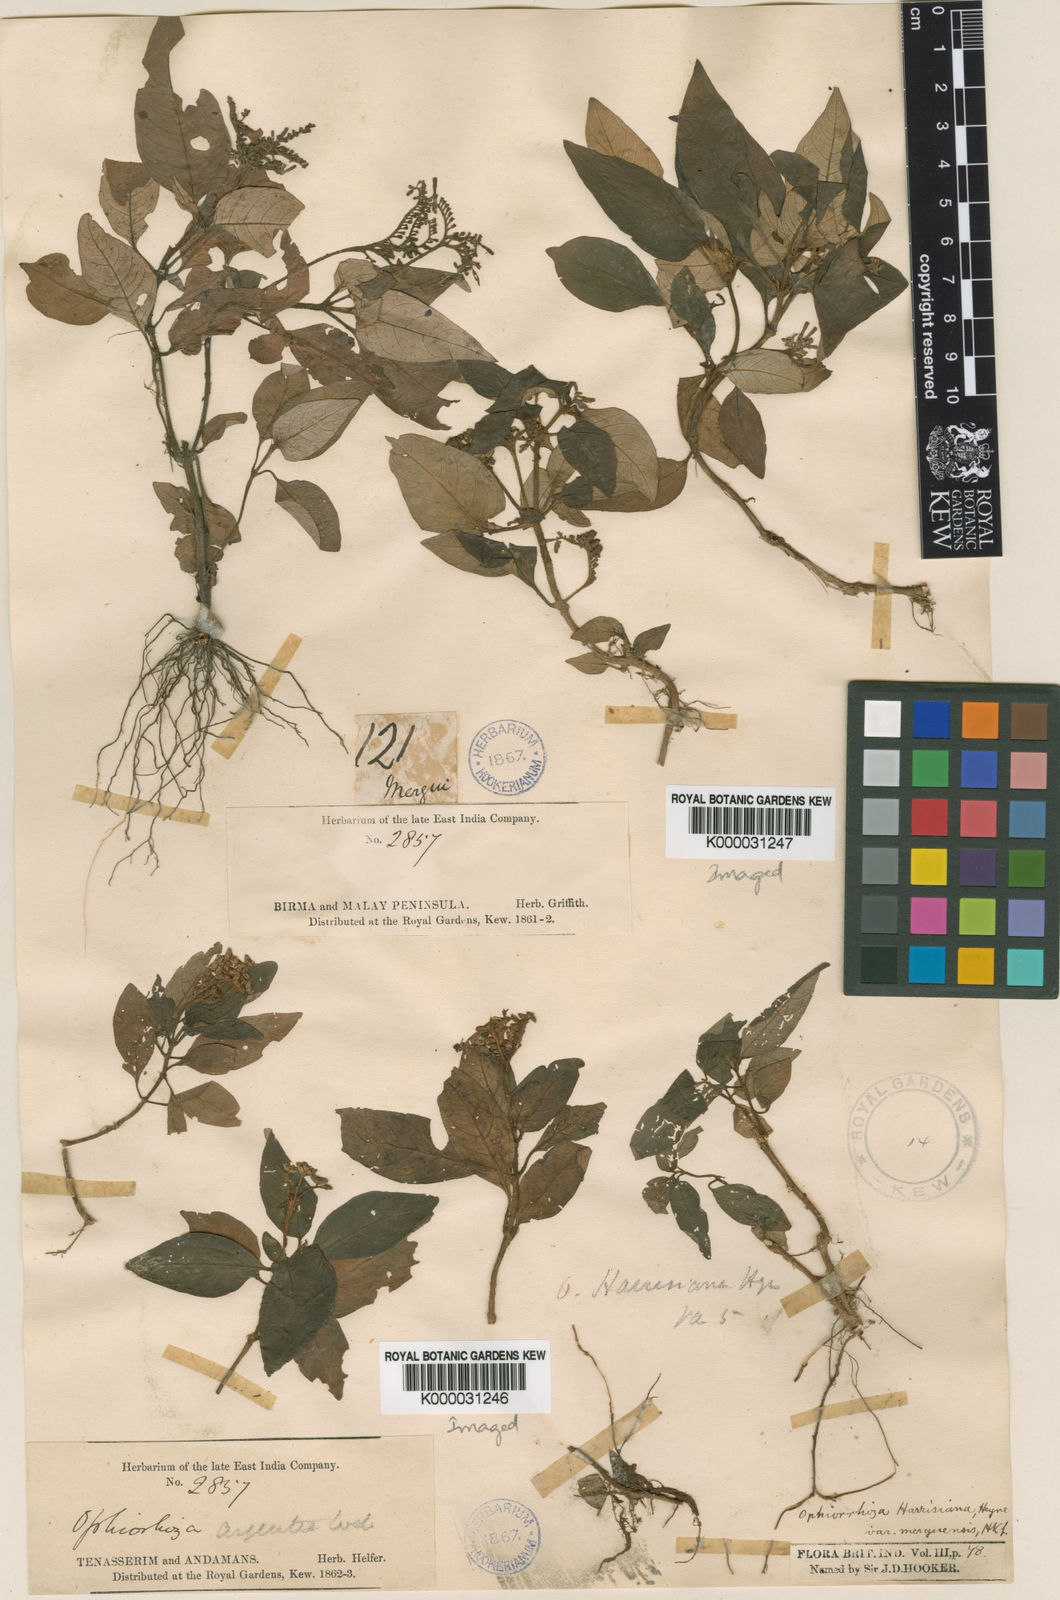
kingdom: Plantae
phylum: Tracheophyta
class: Magnoliopsida
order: Gentianales
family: Rubiaceae
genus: Ophiorrhiza
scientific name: Ophiorrhiza rugosa
